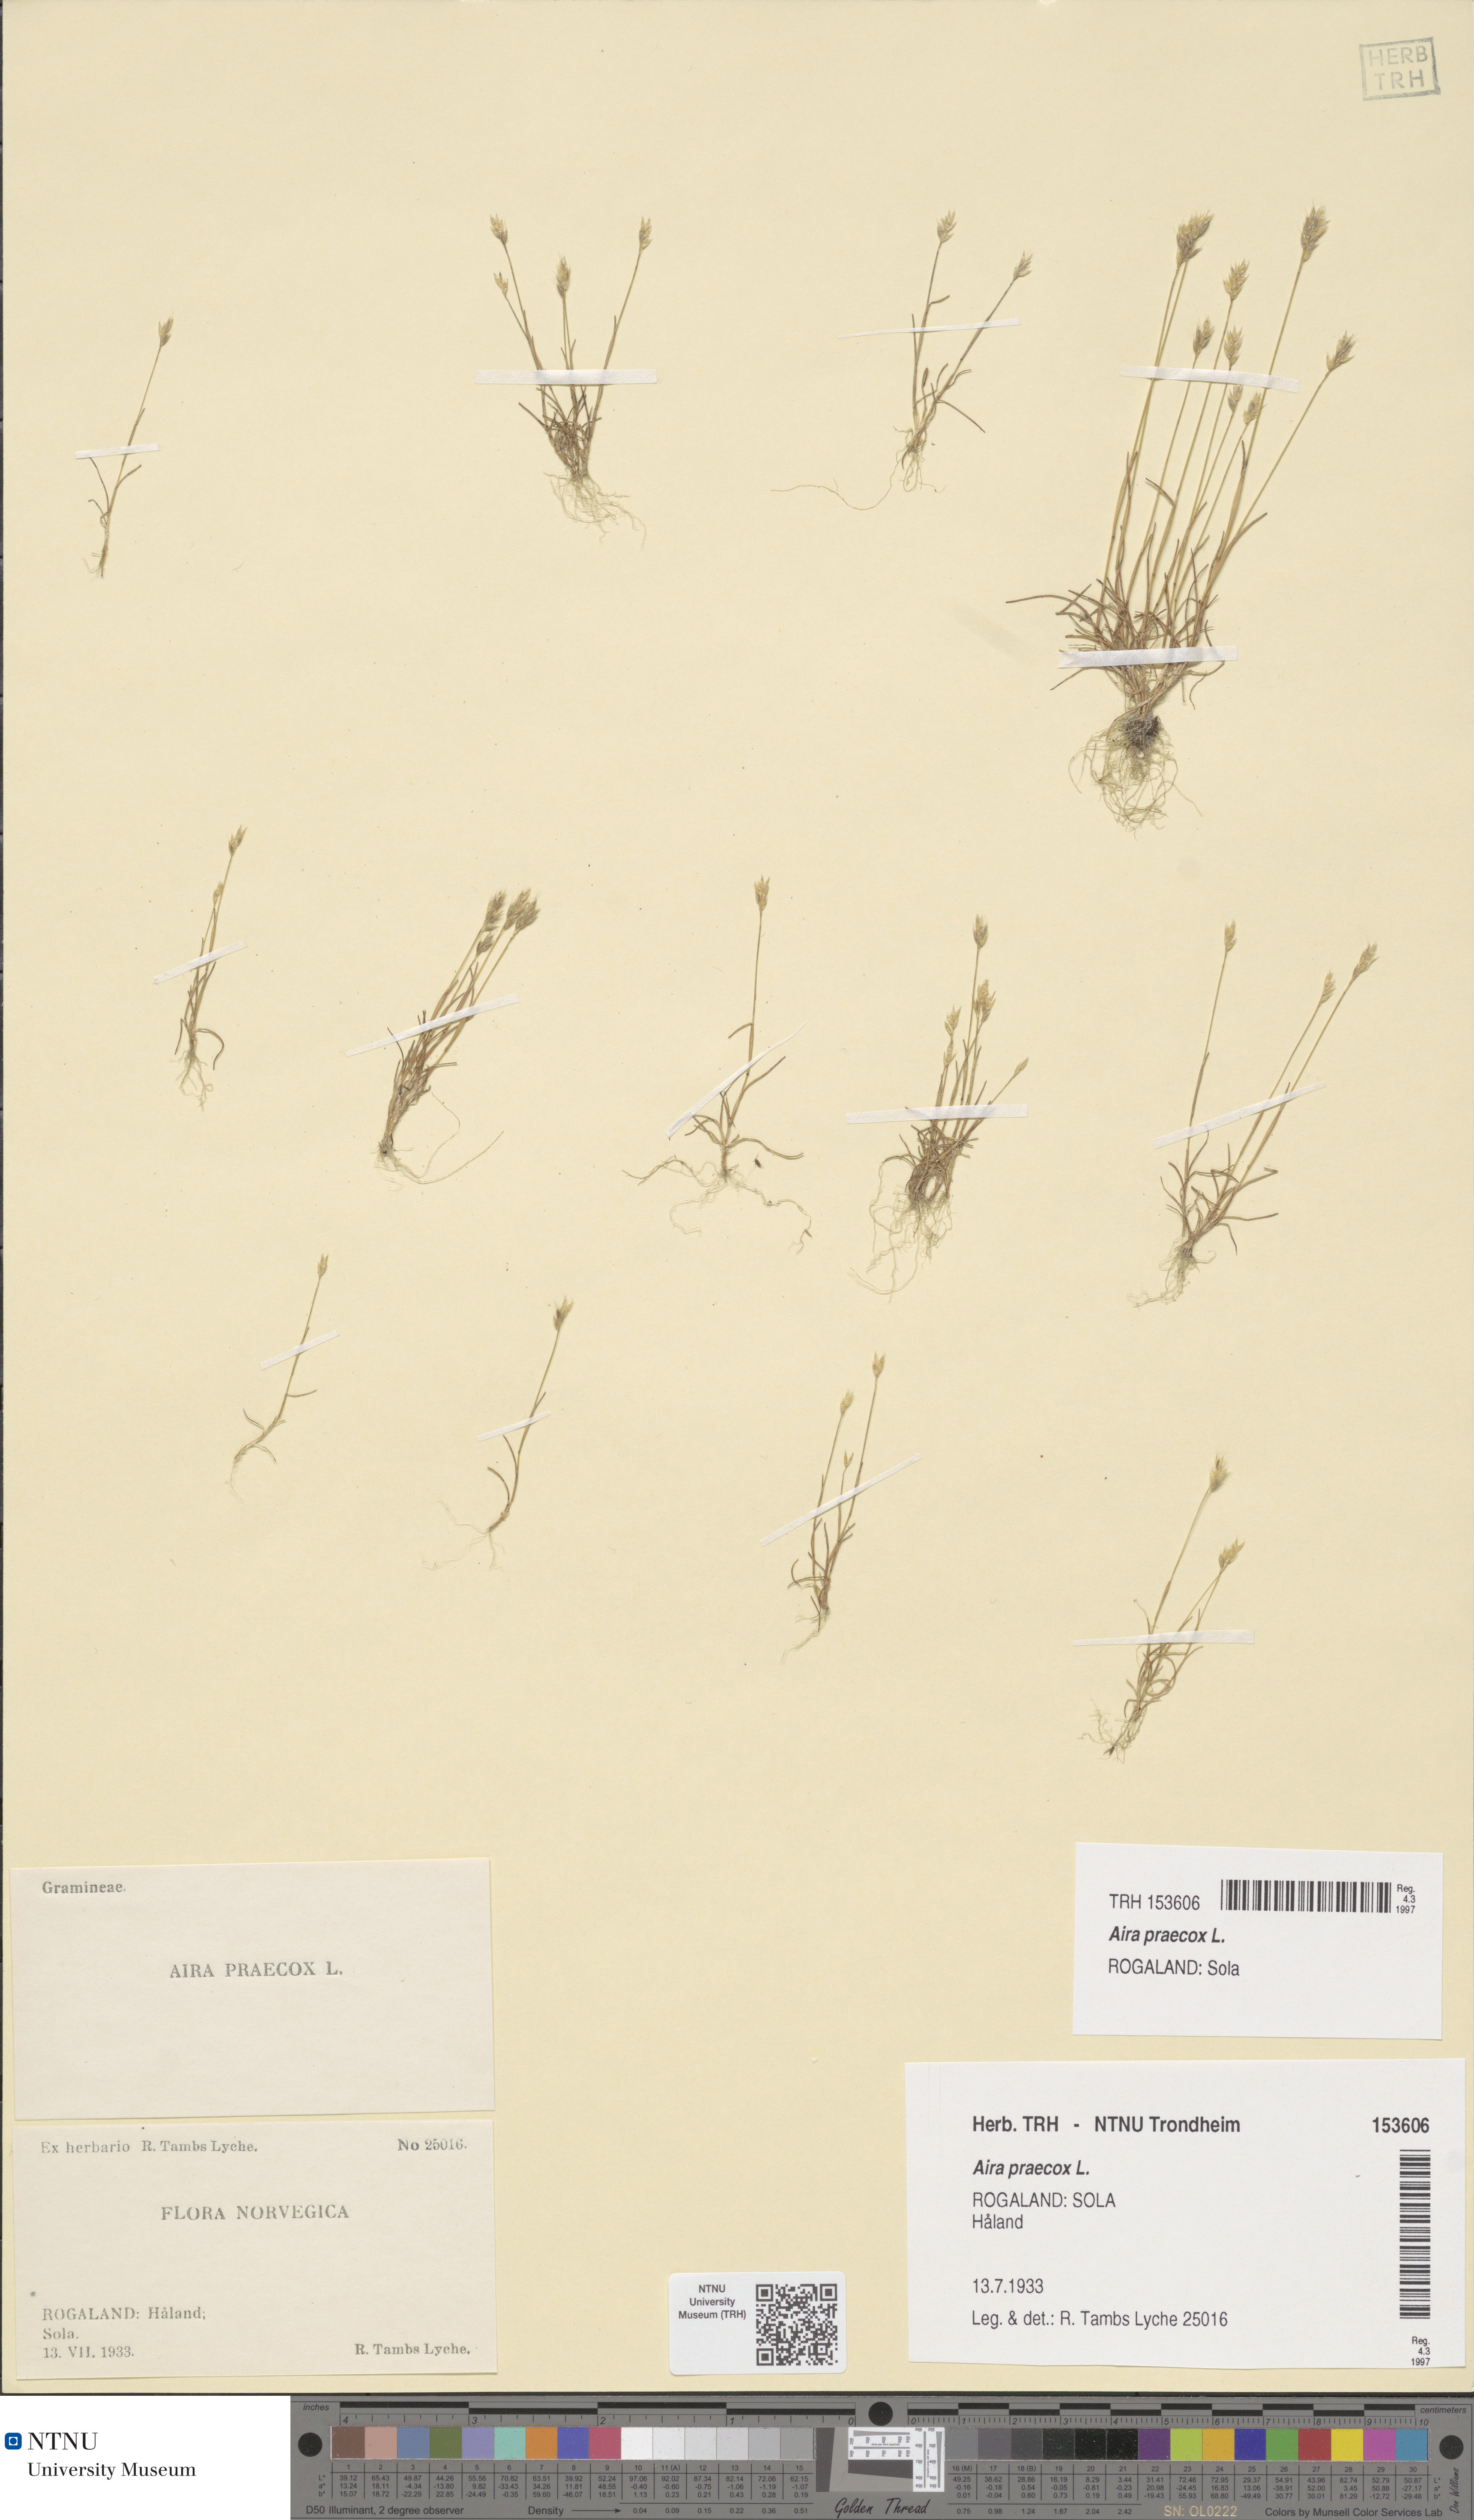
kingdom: Plantae
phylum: Tracheophyta
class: Liliopsida
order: Poales
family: Poaceae
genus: Aira
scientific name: Aira praecox
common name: Early hair-grass
